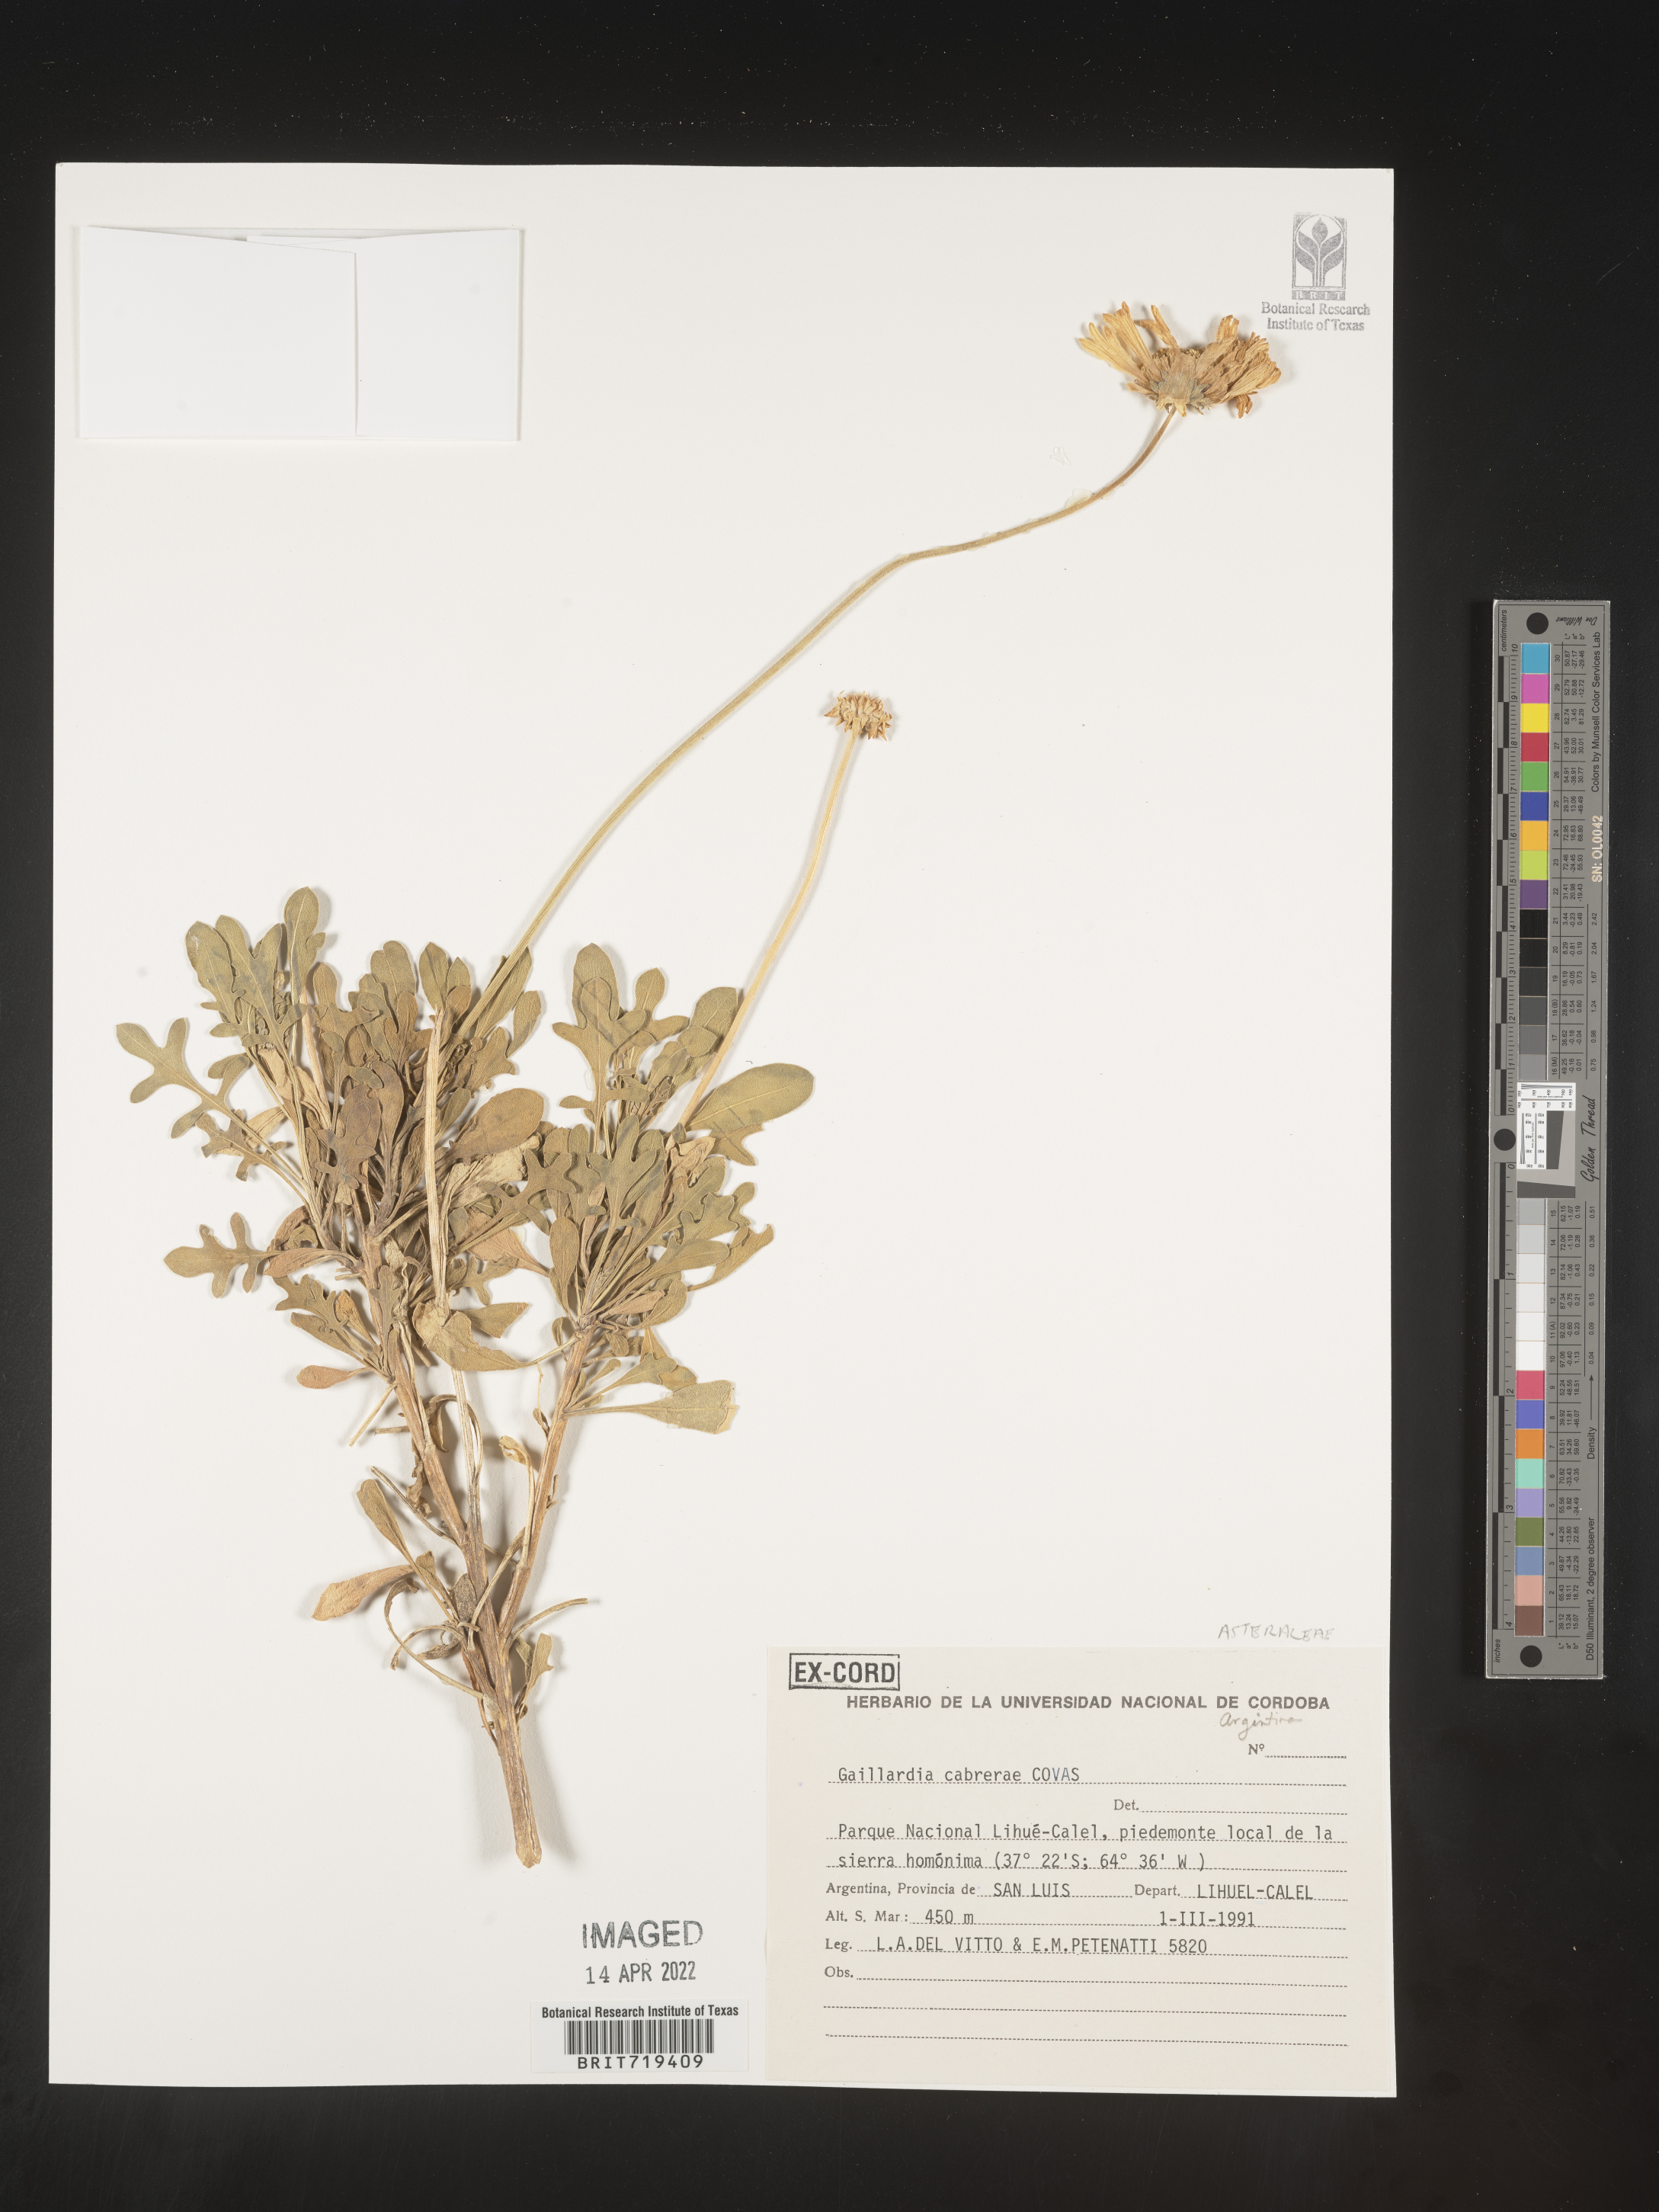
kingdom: Plantae
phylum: Tracheophyta
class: Magnoliopsida
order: Asterales
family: Asteraceae
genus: Gaillardia
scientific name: Gaillardia
